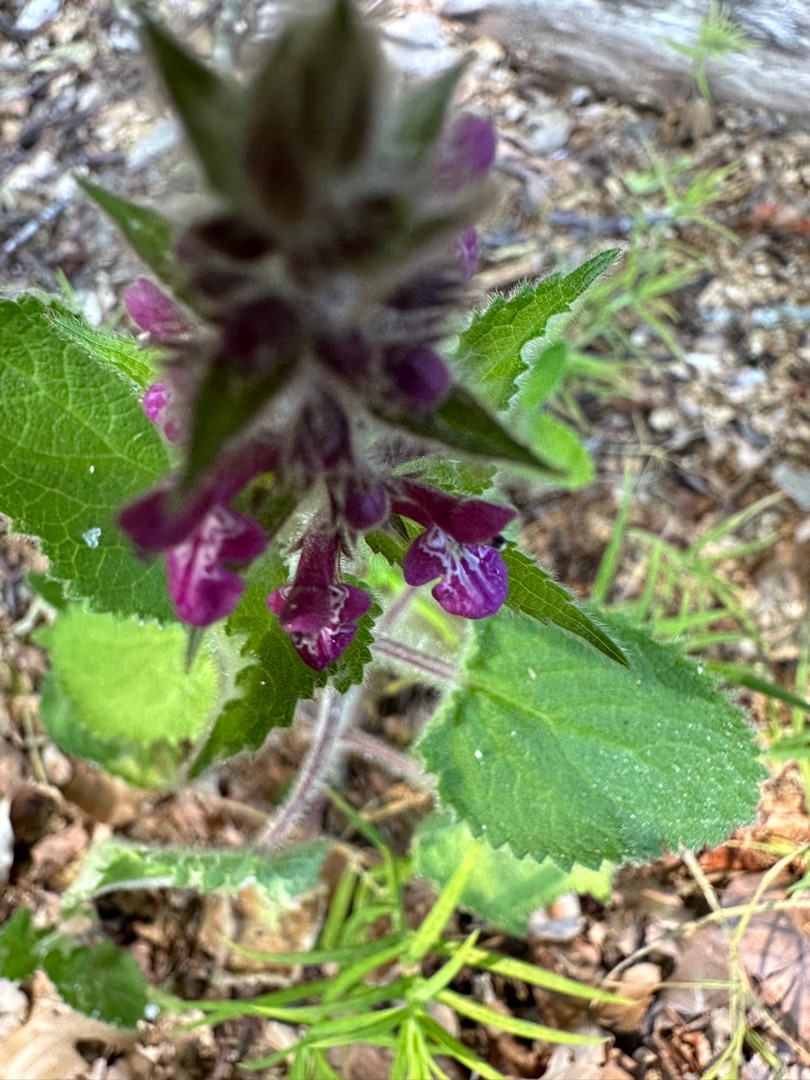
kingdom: Plantae
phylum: Tracheophyta
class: Magnoliopsida
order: Lamiales
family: Lamiaceae
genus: Stachys
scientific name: Stachys sylvatica
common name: Skov-galtetand
